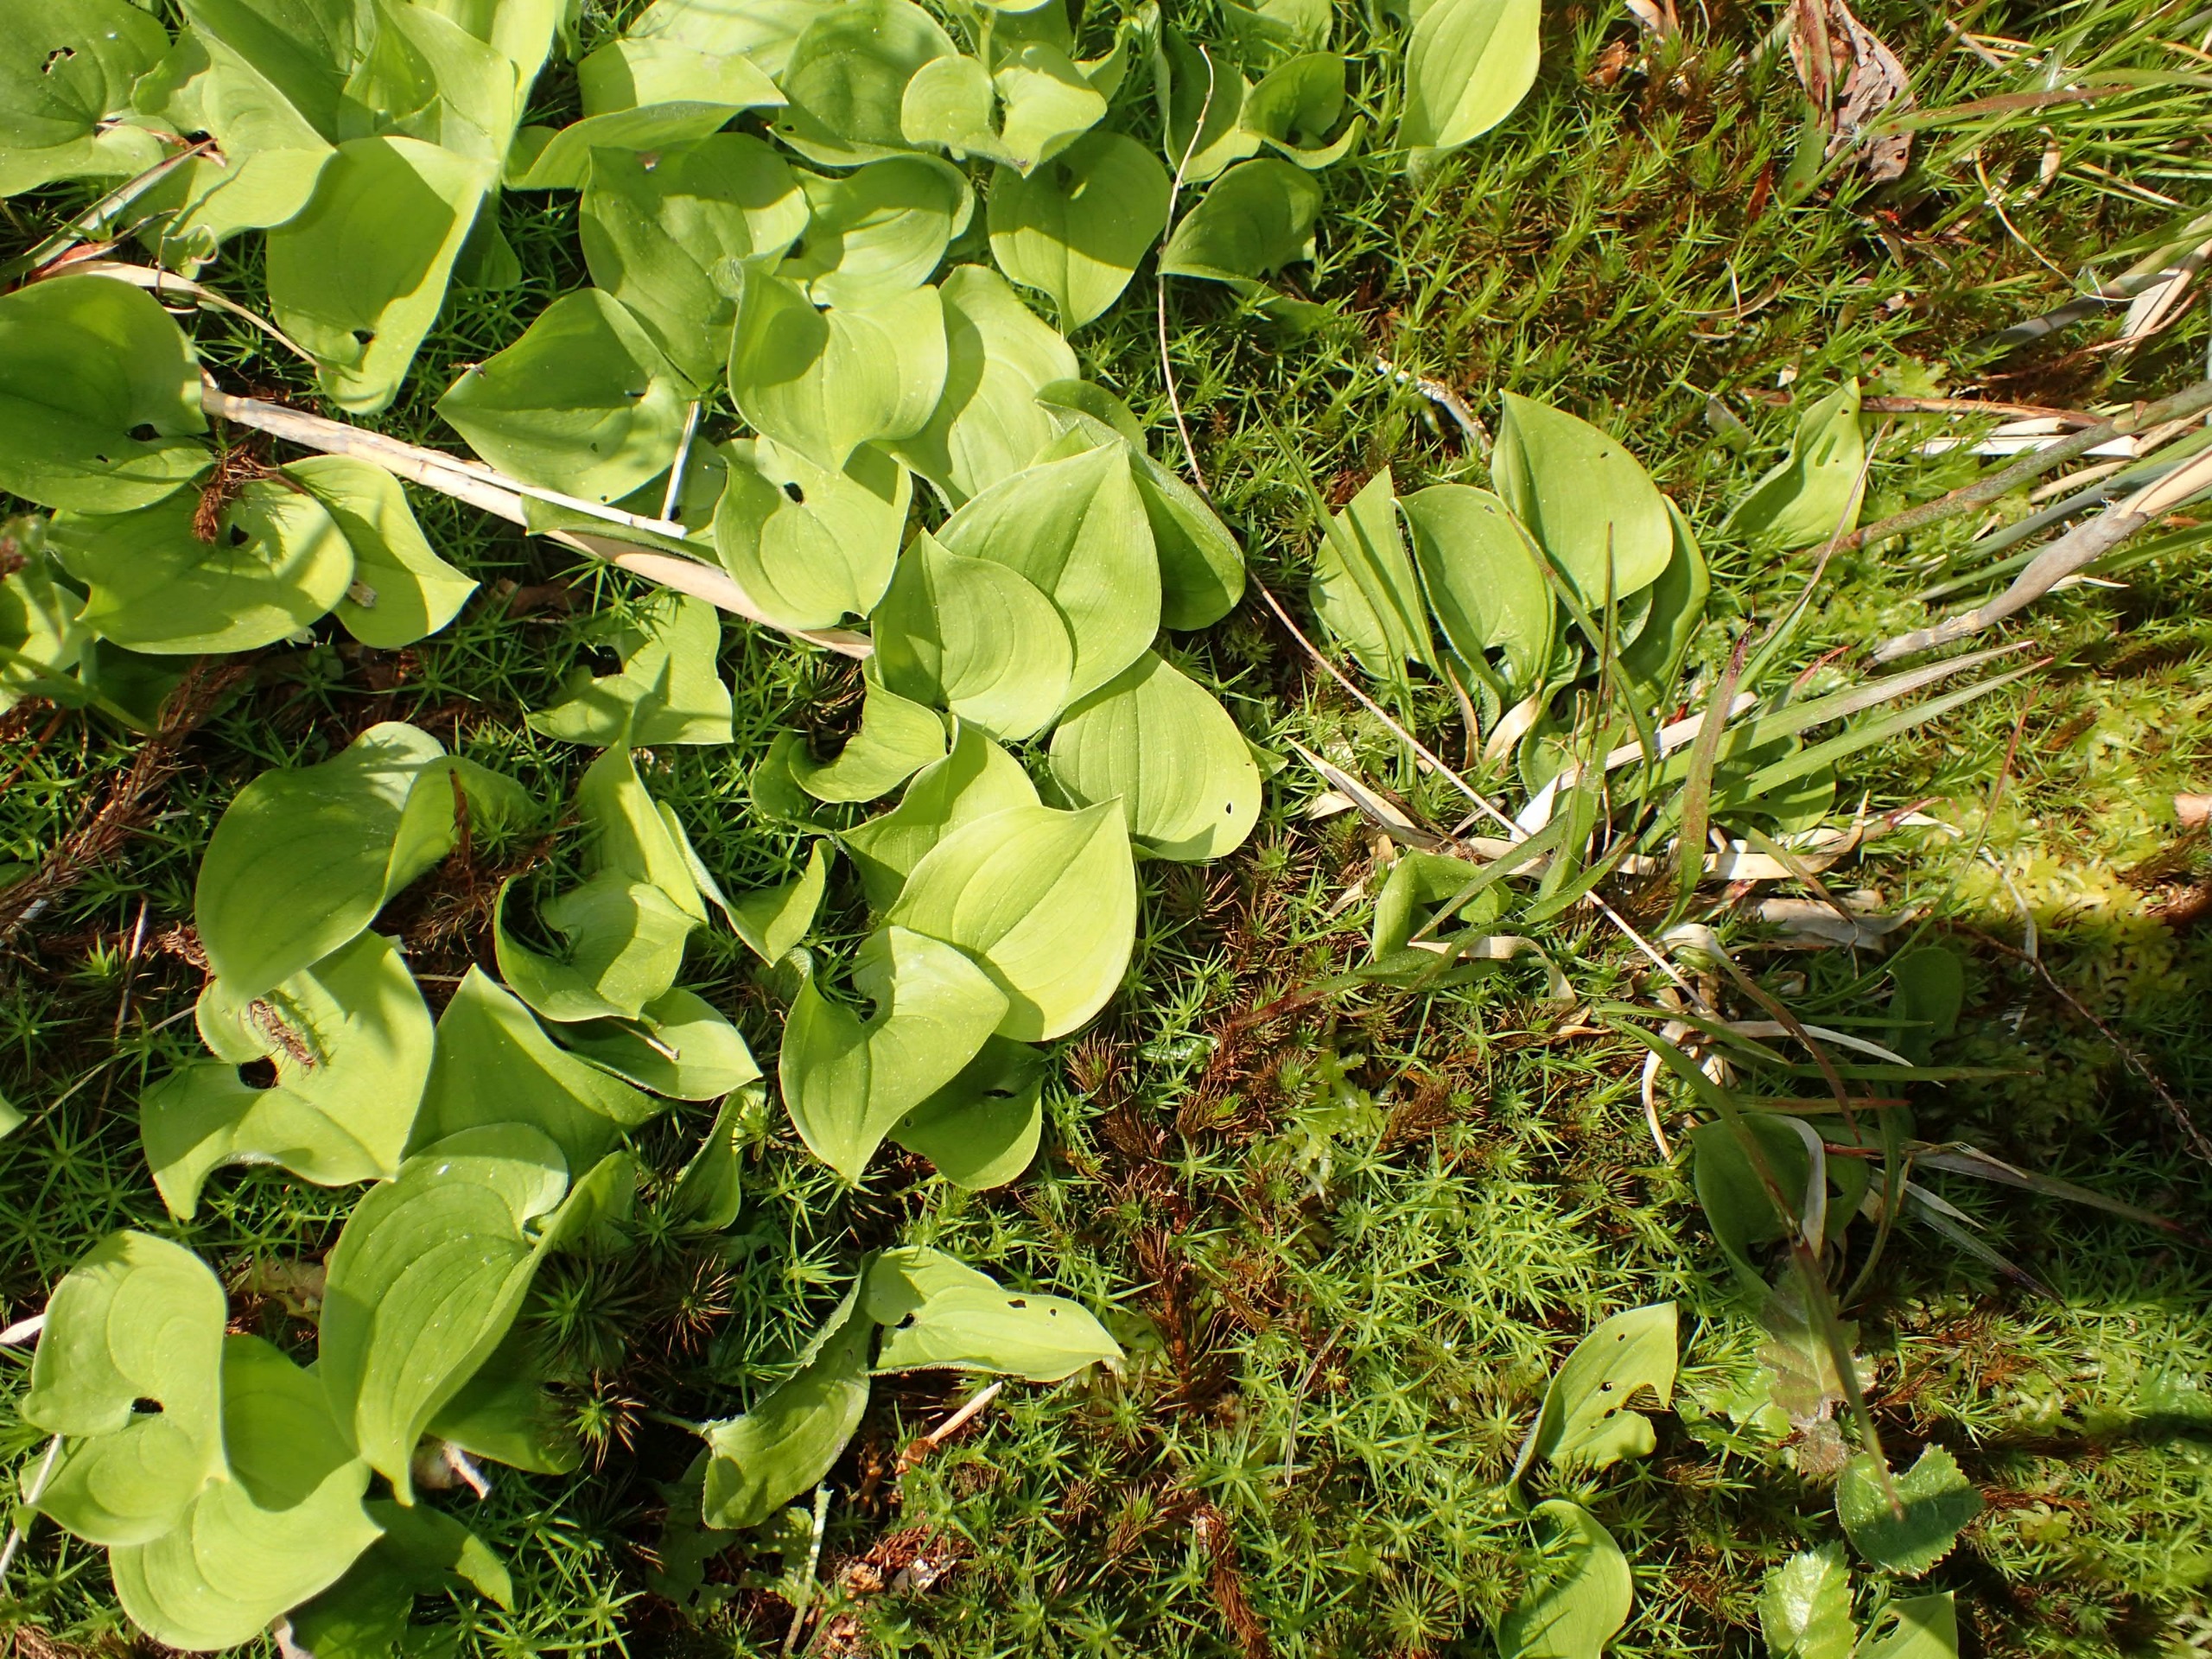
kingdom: Plantae
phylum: Tracheophyta
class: Liliopsida
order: Asparagales
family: Asparagaceae
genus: Maianthemum
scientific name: Maianthemum bifolium
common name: Majblomst
